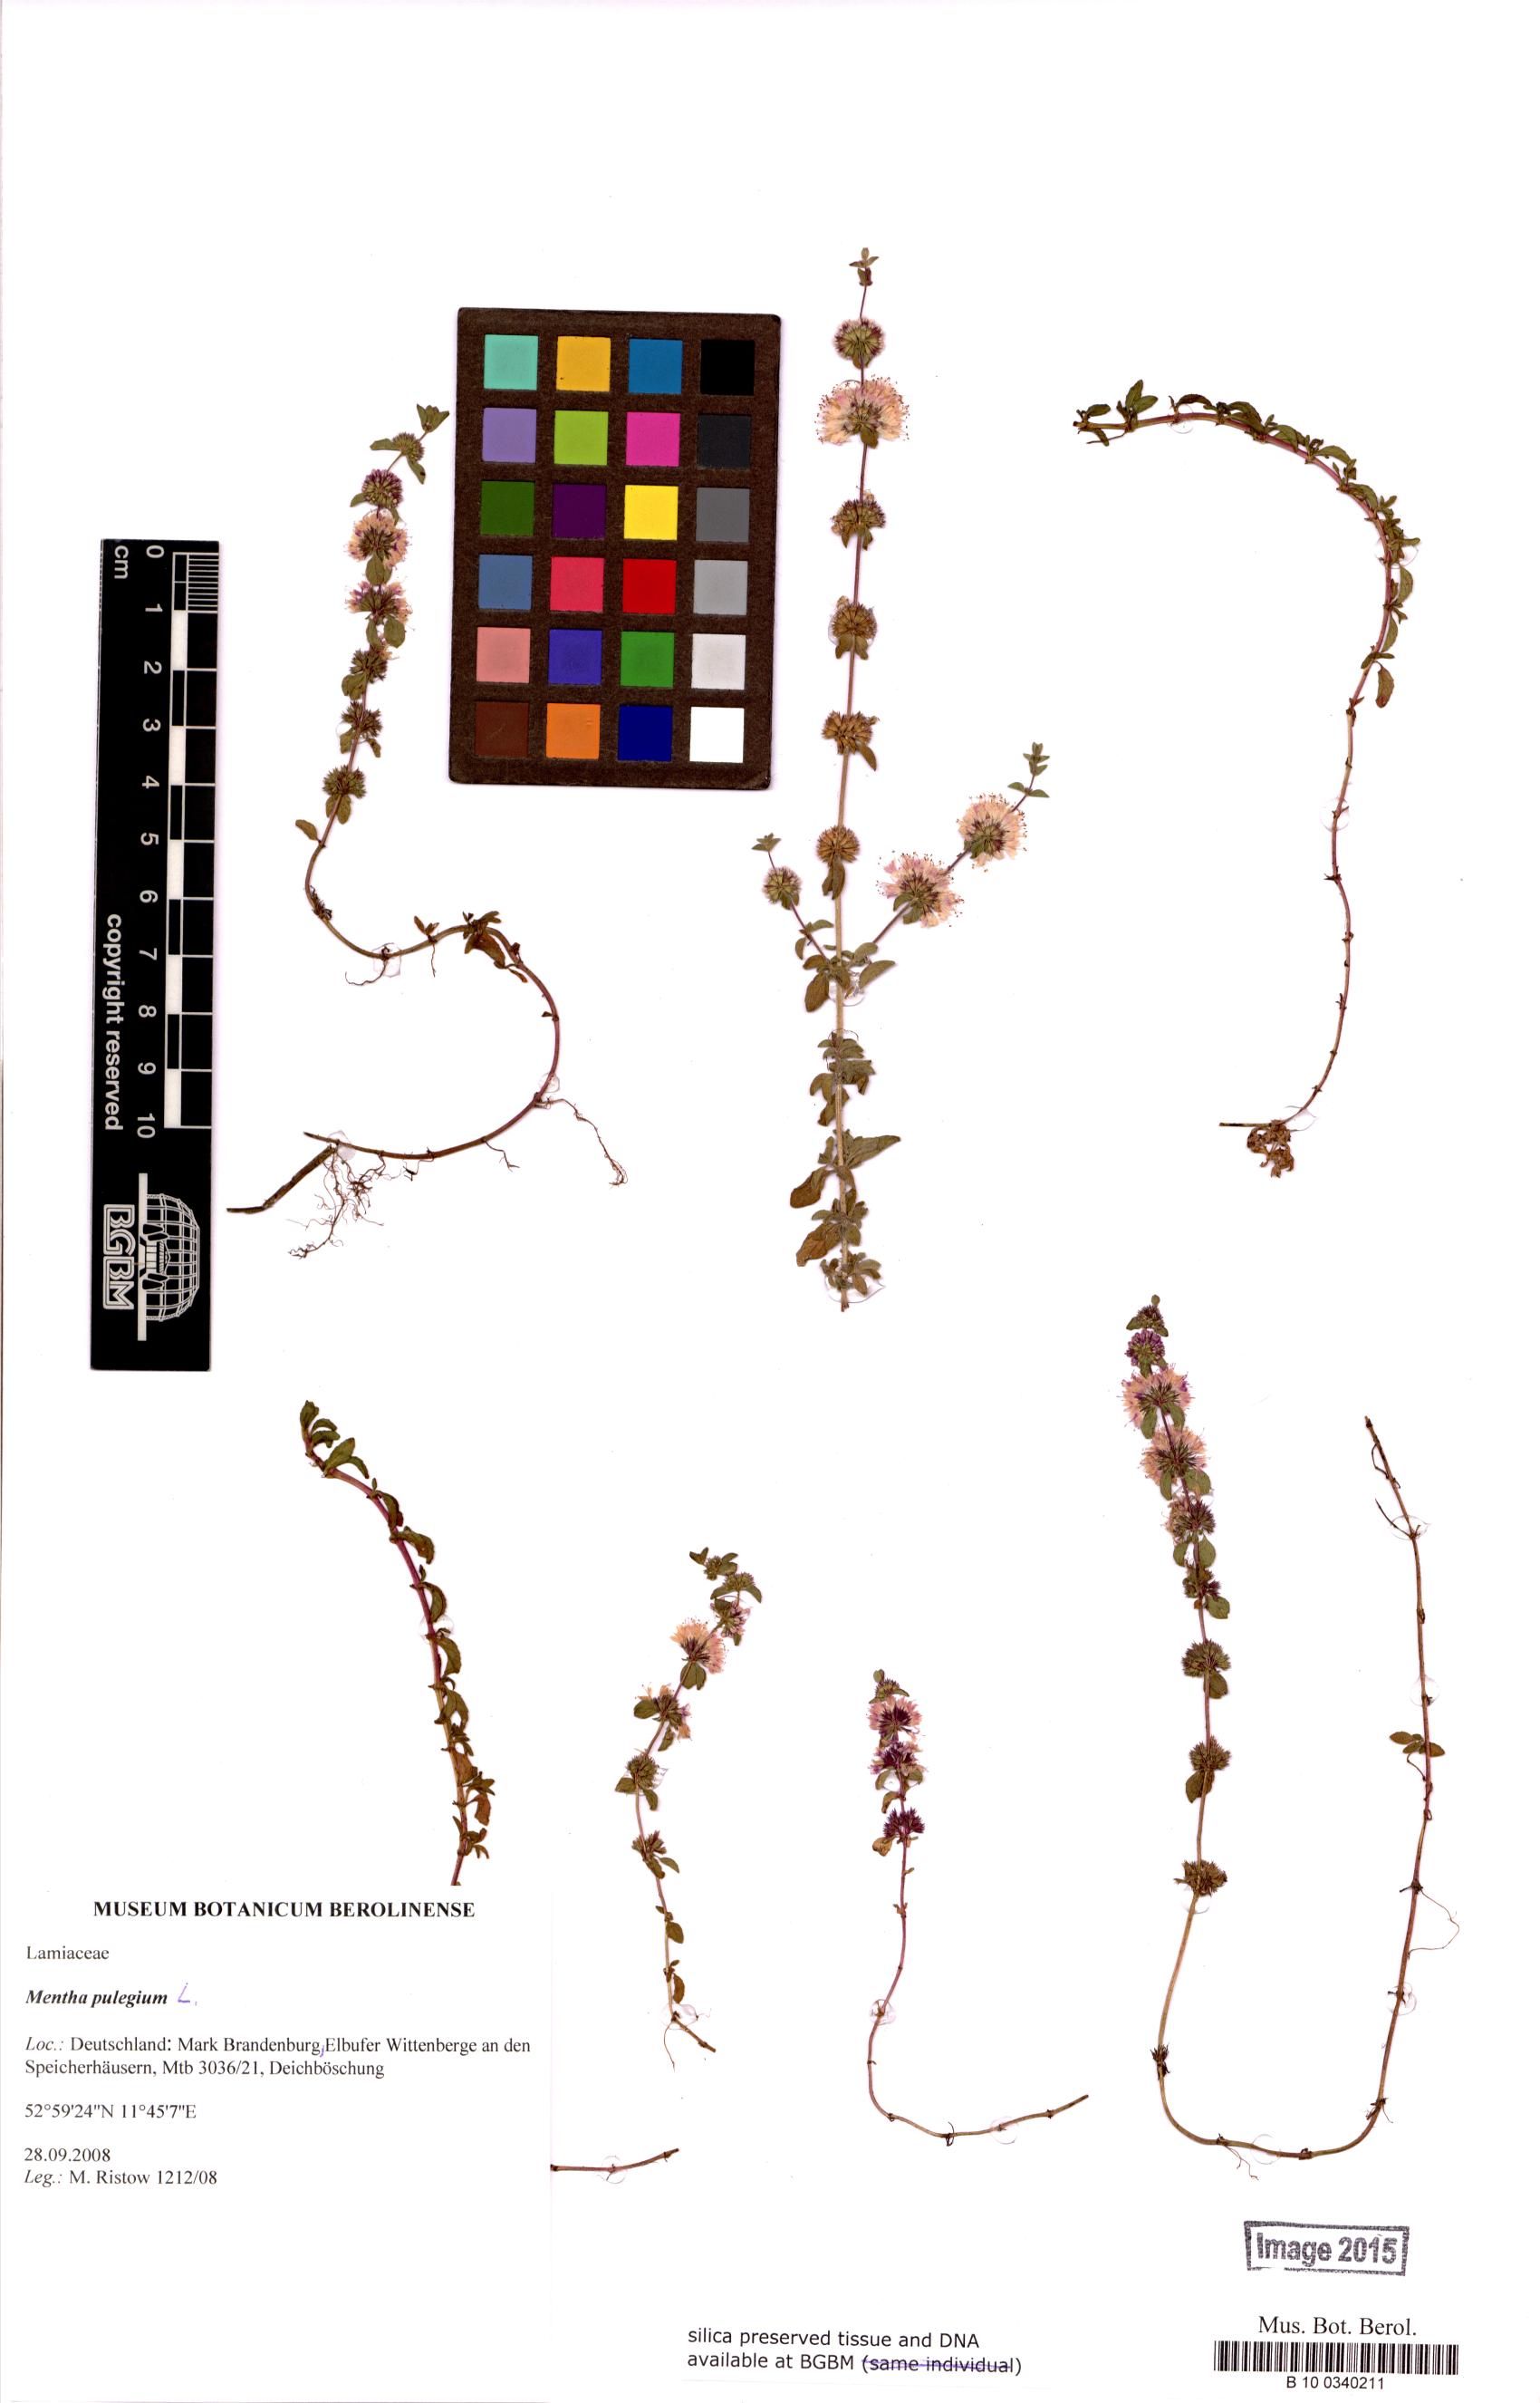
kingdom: Plantae
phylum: Tracheophyta
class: Magnoliopsida
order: Lamiales
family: Lamiaceae
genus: Mentha
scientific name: Mentha pulegium
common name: Pennyroyal
